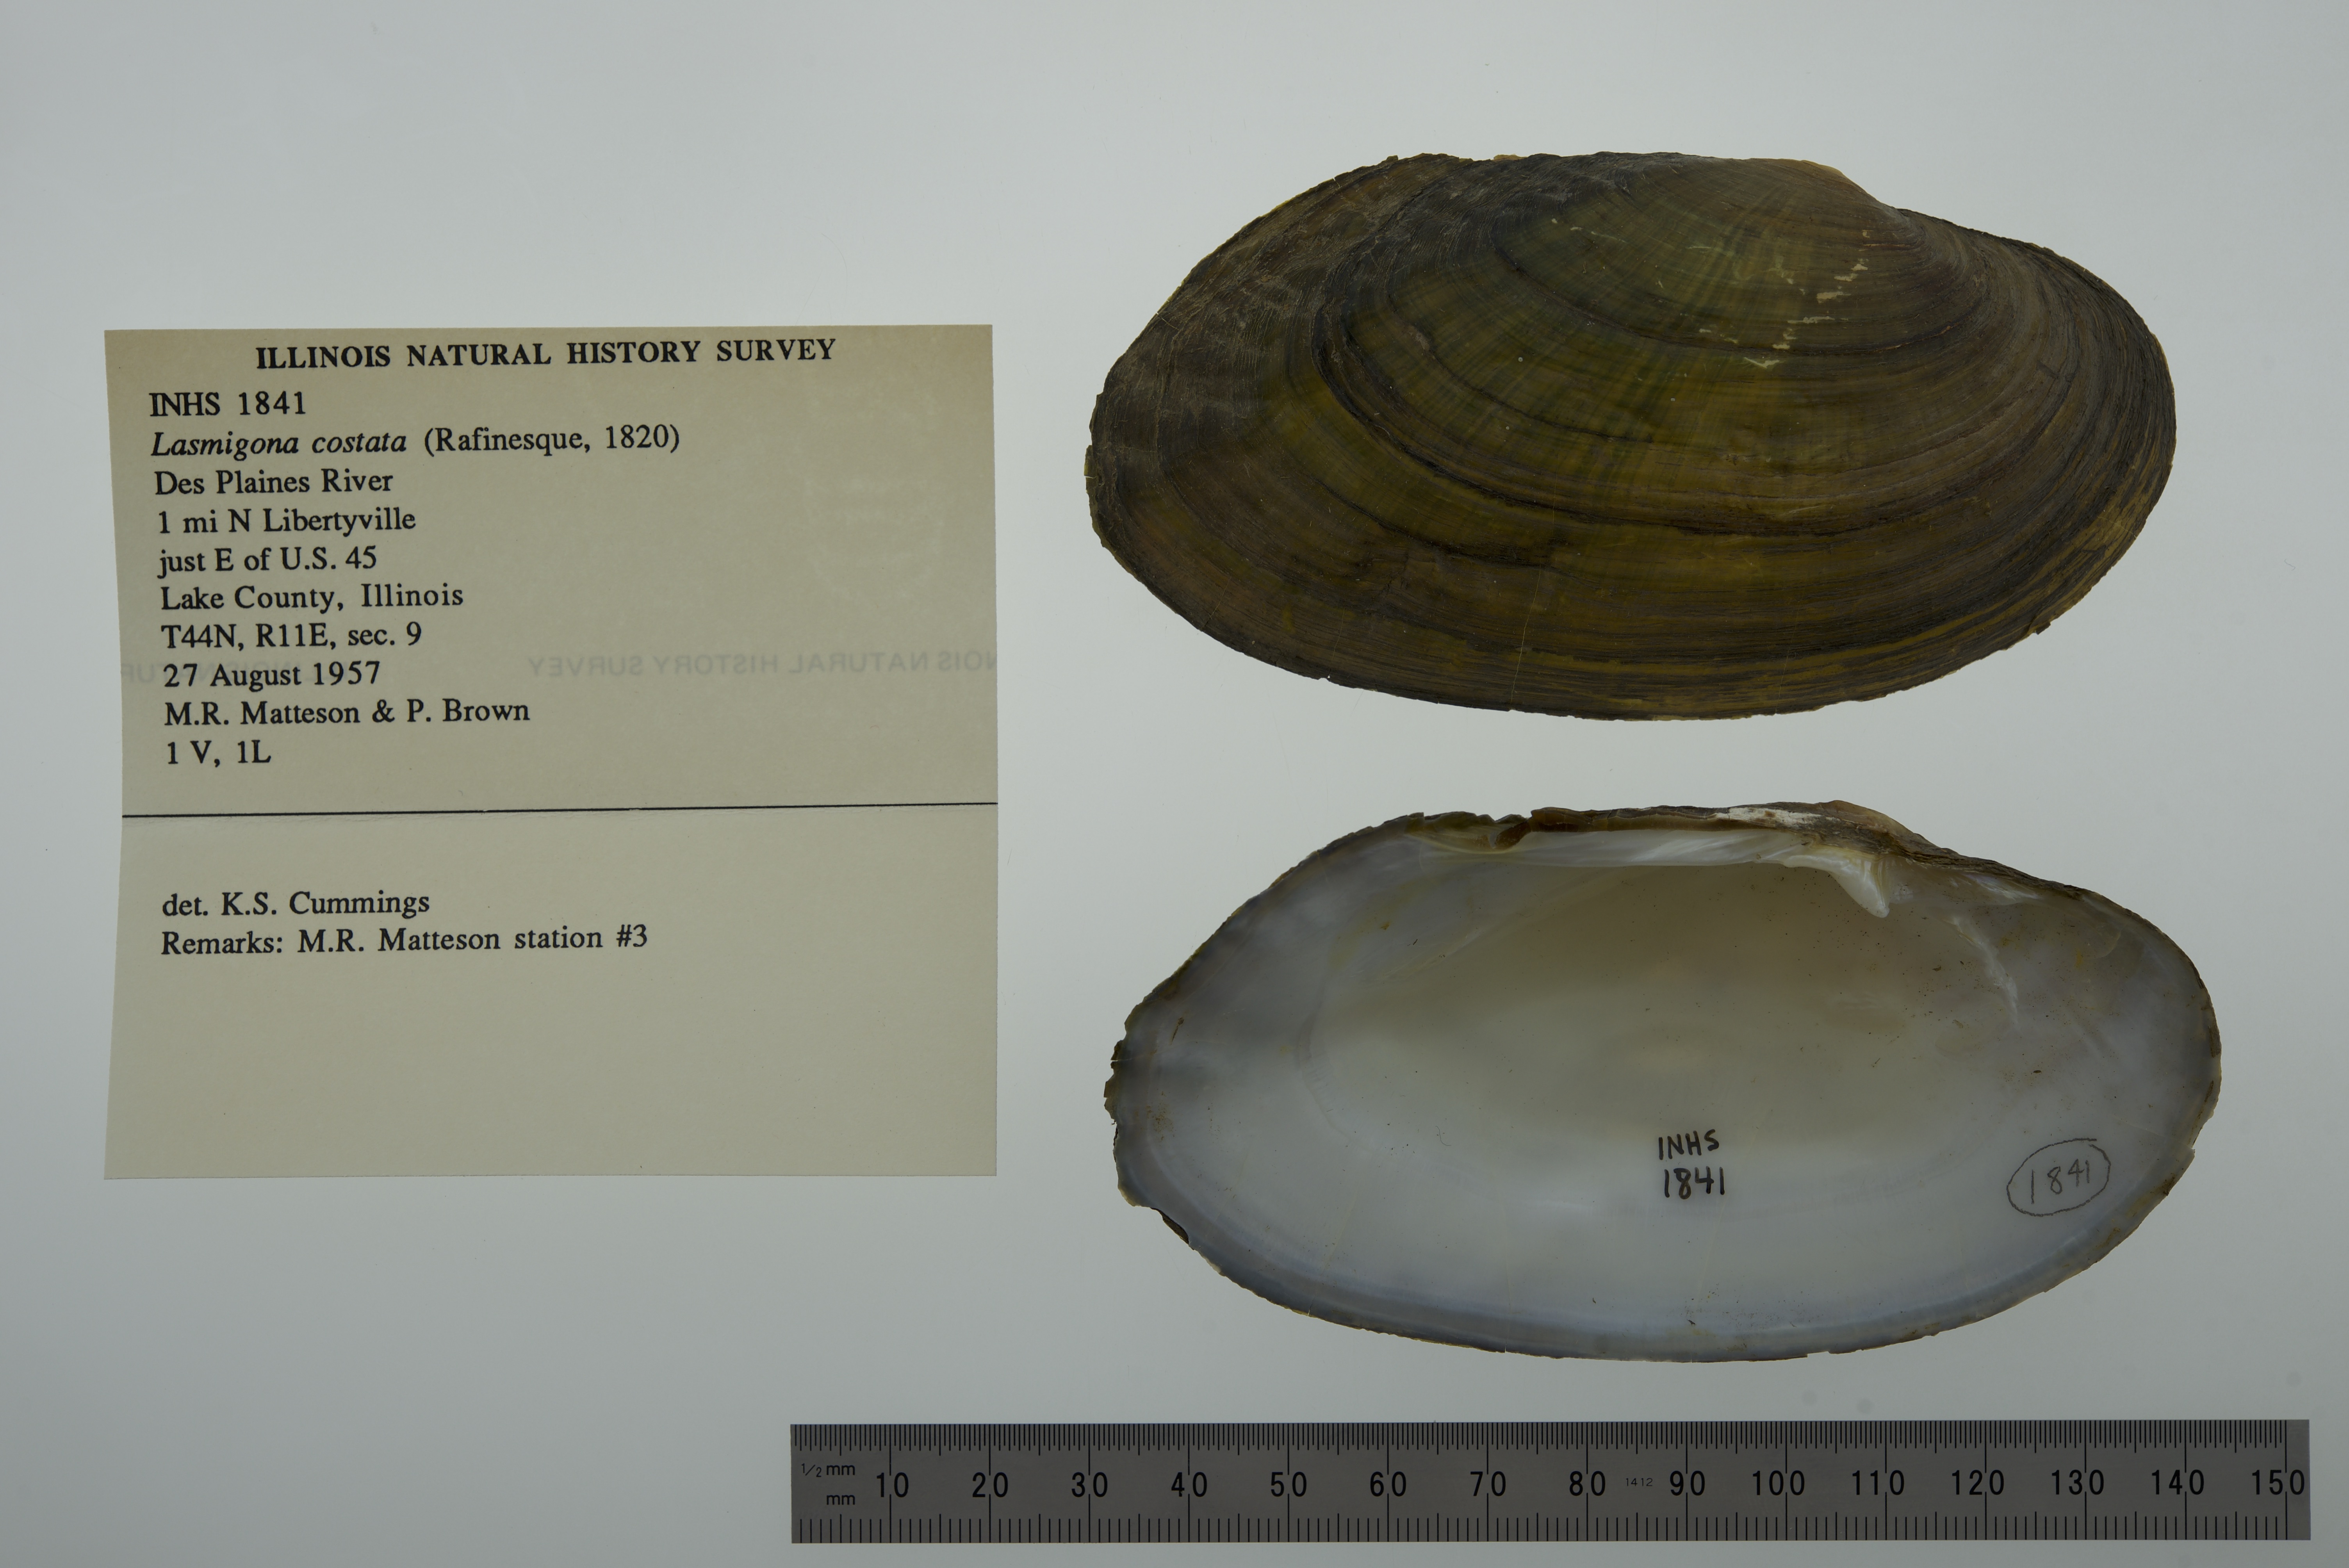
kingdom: Animalia
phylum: Mollusca
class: Bivalvia
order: Unionida
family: Unionidae
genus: Lasmigona
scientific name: Lasmigona costata
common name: Flutedshell
